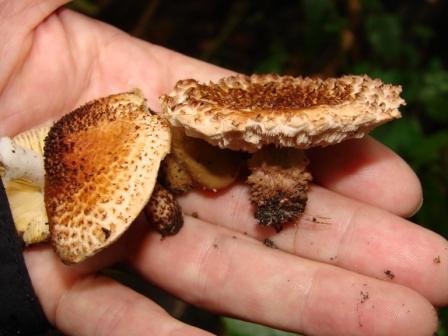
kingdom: Fungi
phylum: Basidiomycota
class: Agaricomycetes
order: Agaricales
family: Agaricaceae
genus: Echinoderma
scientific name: Echinoderma echinaceum
